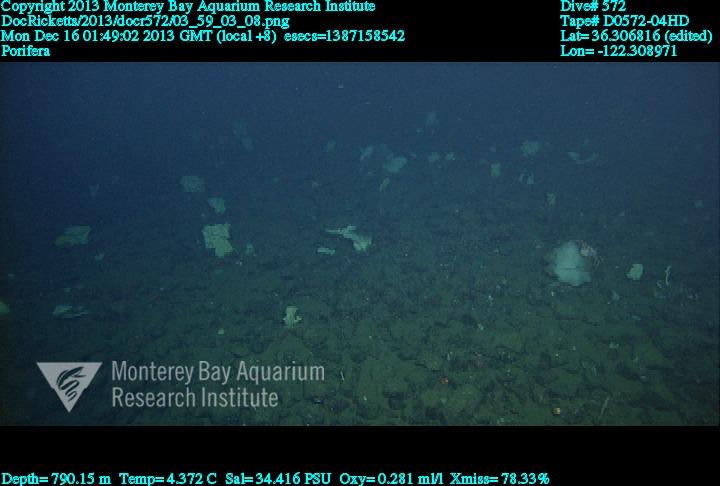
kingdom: Animalia
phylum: Porifera
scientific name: Porifera
